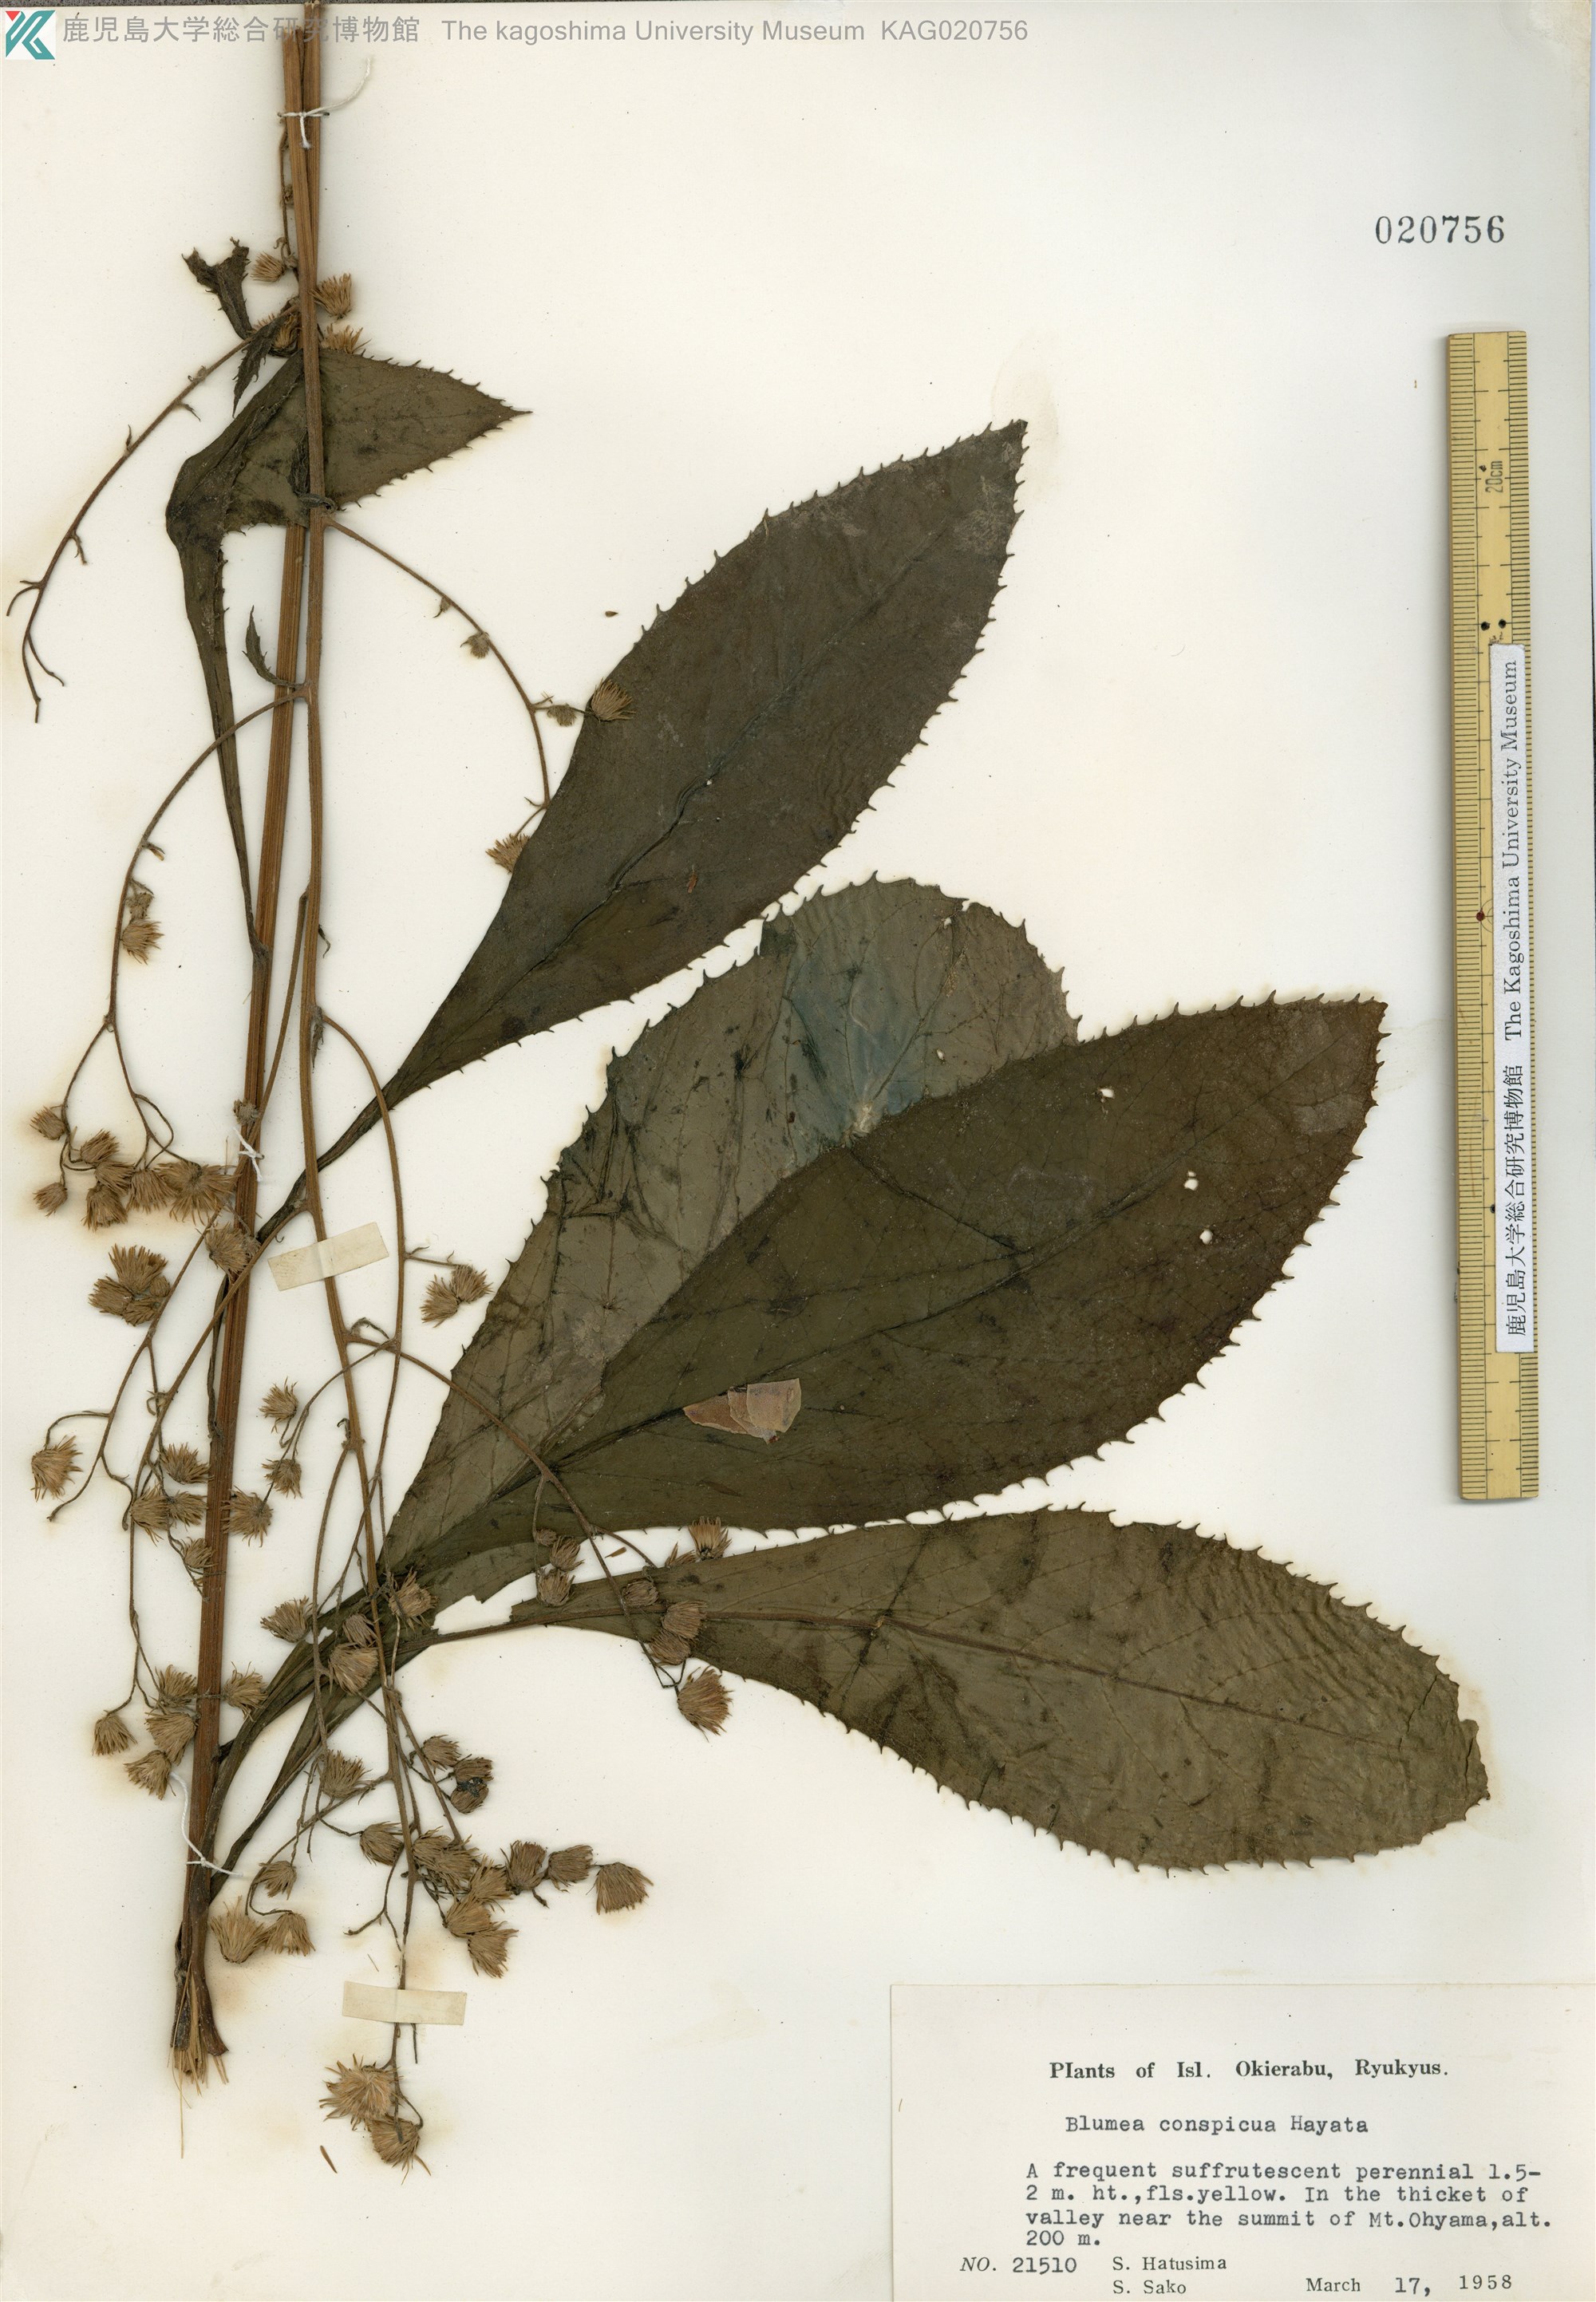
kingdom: Plantae
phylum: Tracheophyta
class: Magnoliopsida
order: Asterales
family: Asteraceae
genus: Blumea
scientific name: Blumea conspicua
